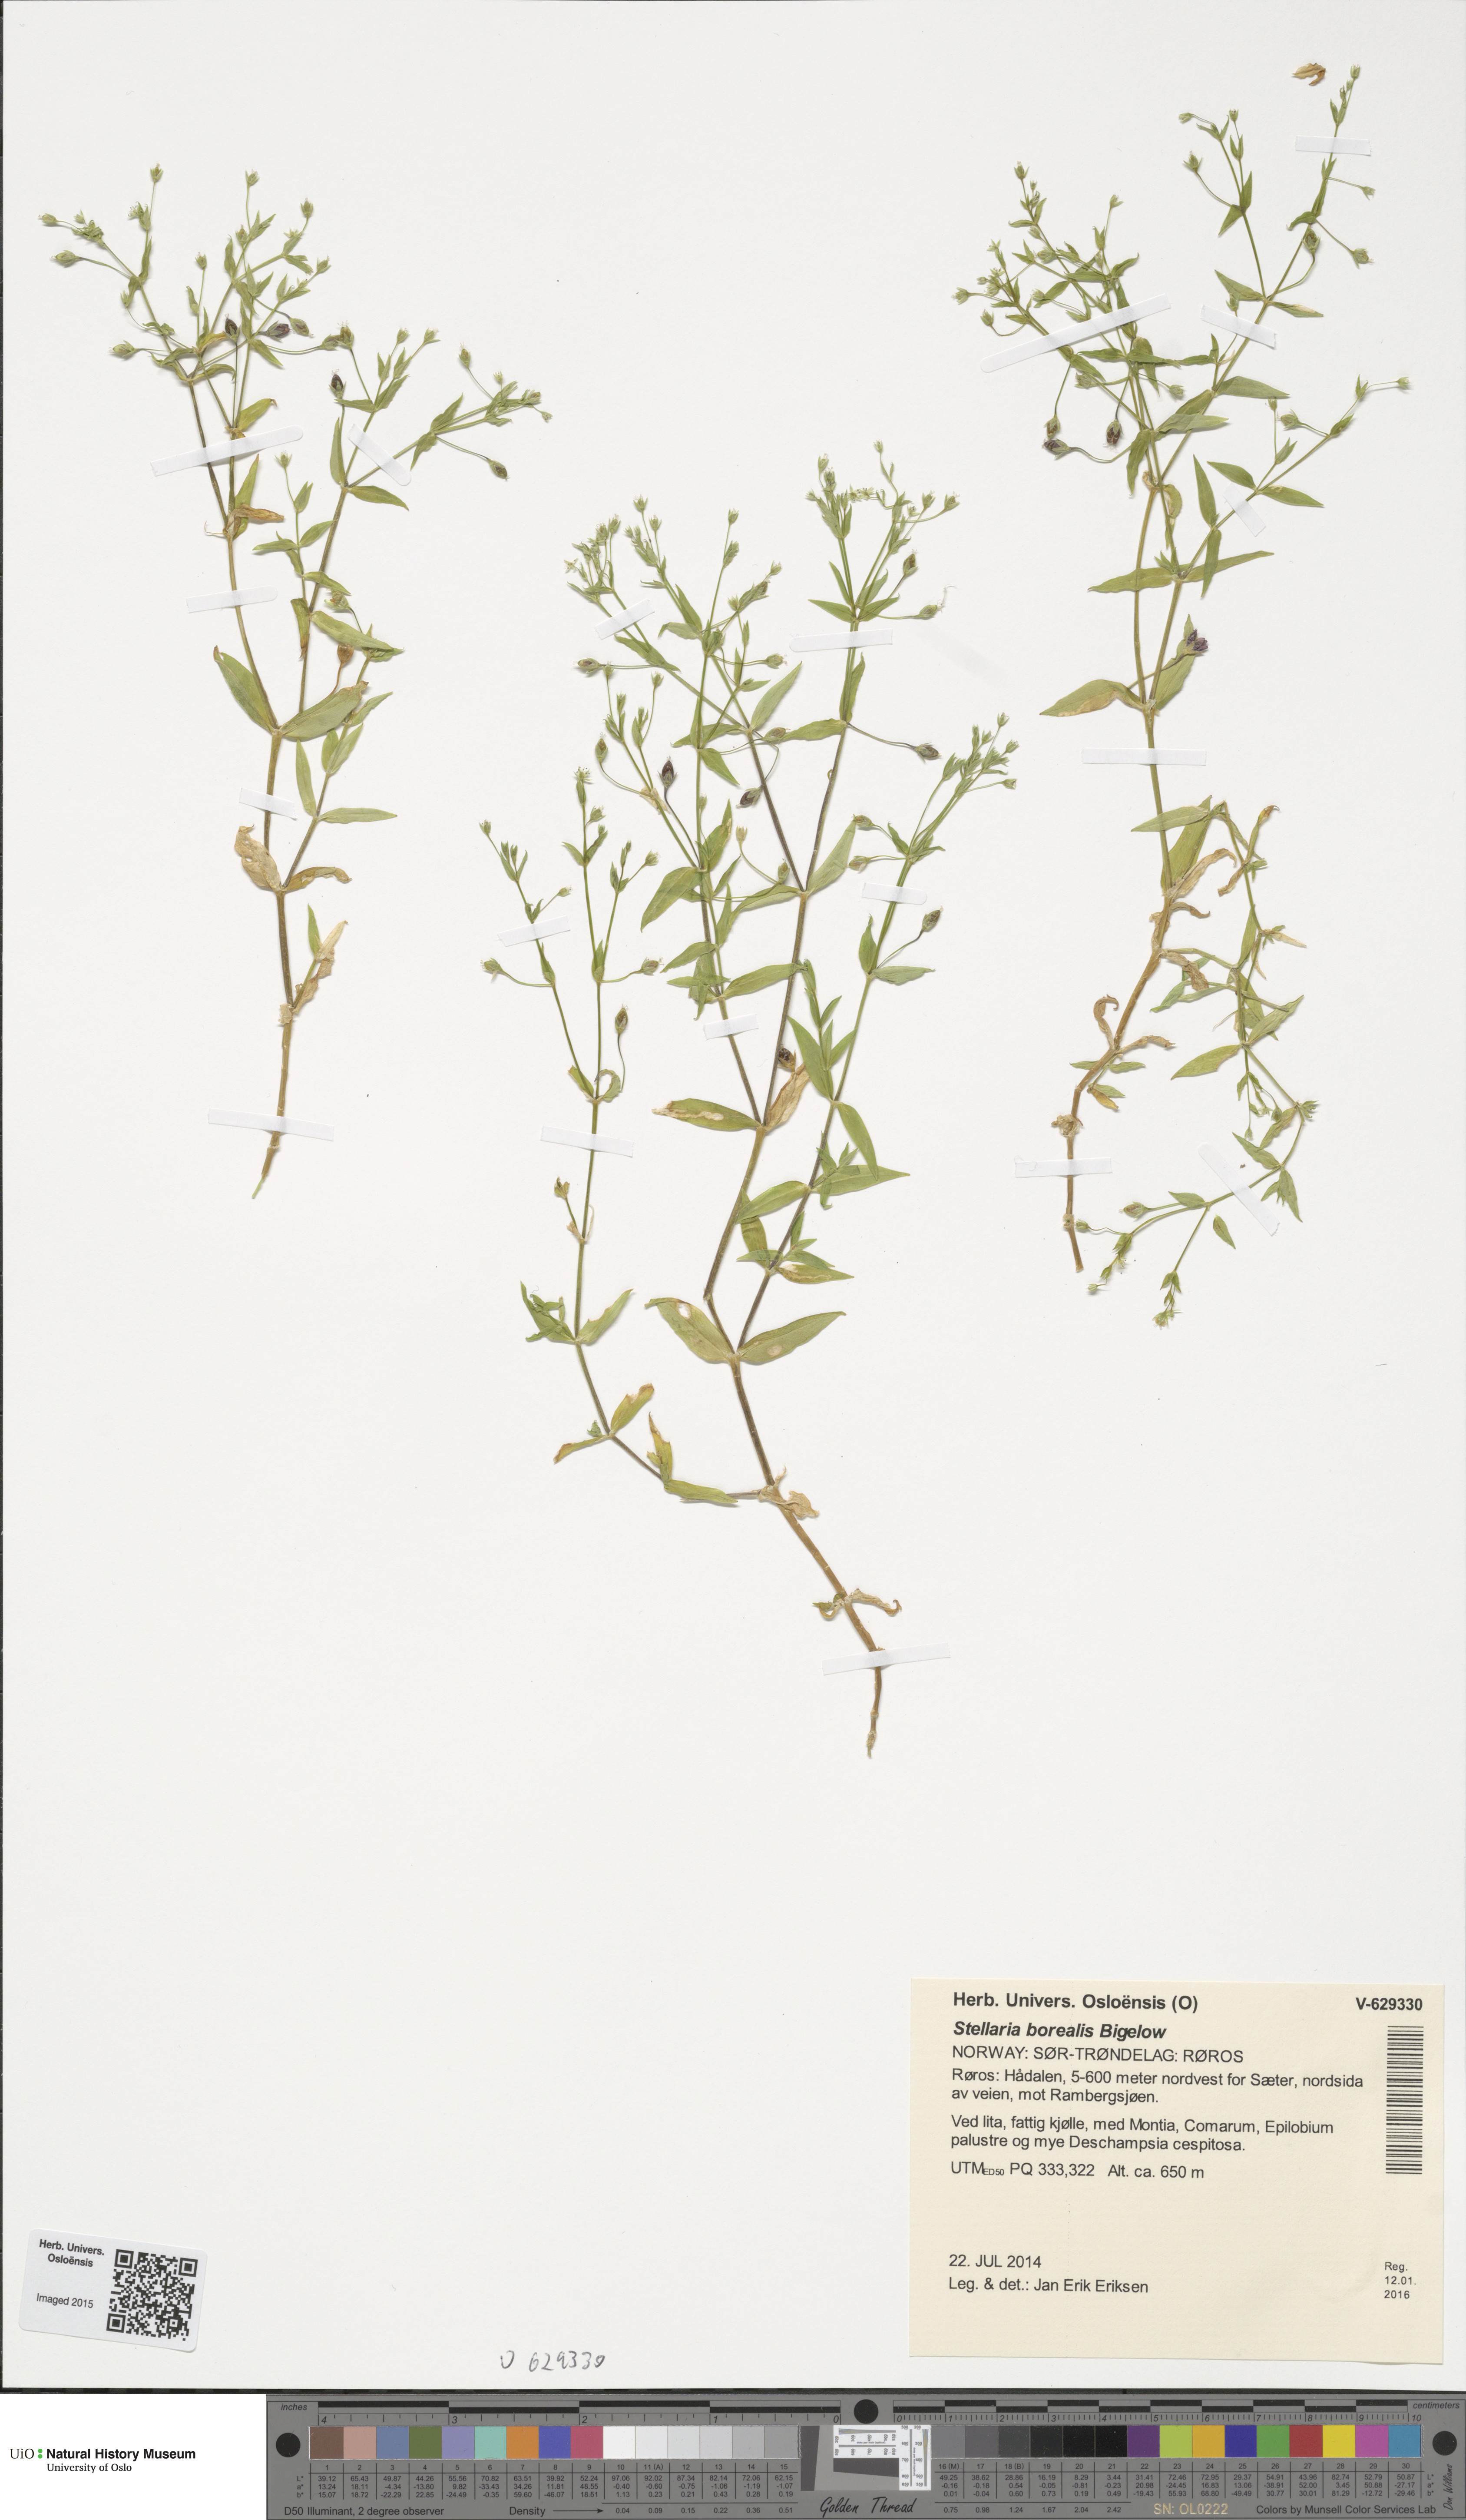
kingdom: Plantae
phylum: Tracheophyta
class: Magnoliopsida
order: Caryophyllales
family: Caryophyllaceae
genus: Stellaria
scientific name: Stellaria borealis
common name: Boreal starwort
